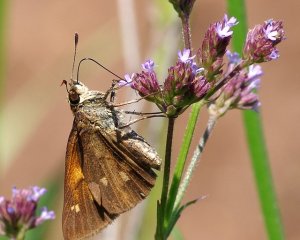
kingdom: Animalia
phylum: Arthropoda
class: Insecta
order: Lepidoptera
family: Hesperiidae
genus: Poanes
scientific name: Poanes viator
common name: Broad-winged Skipper
